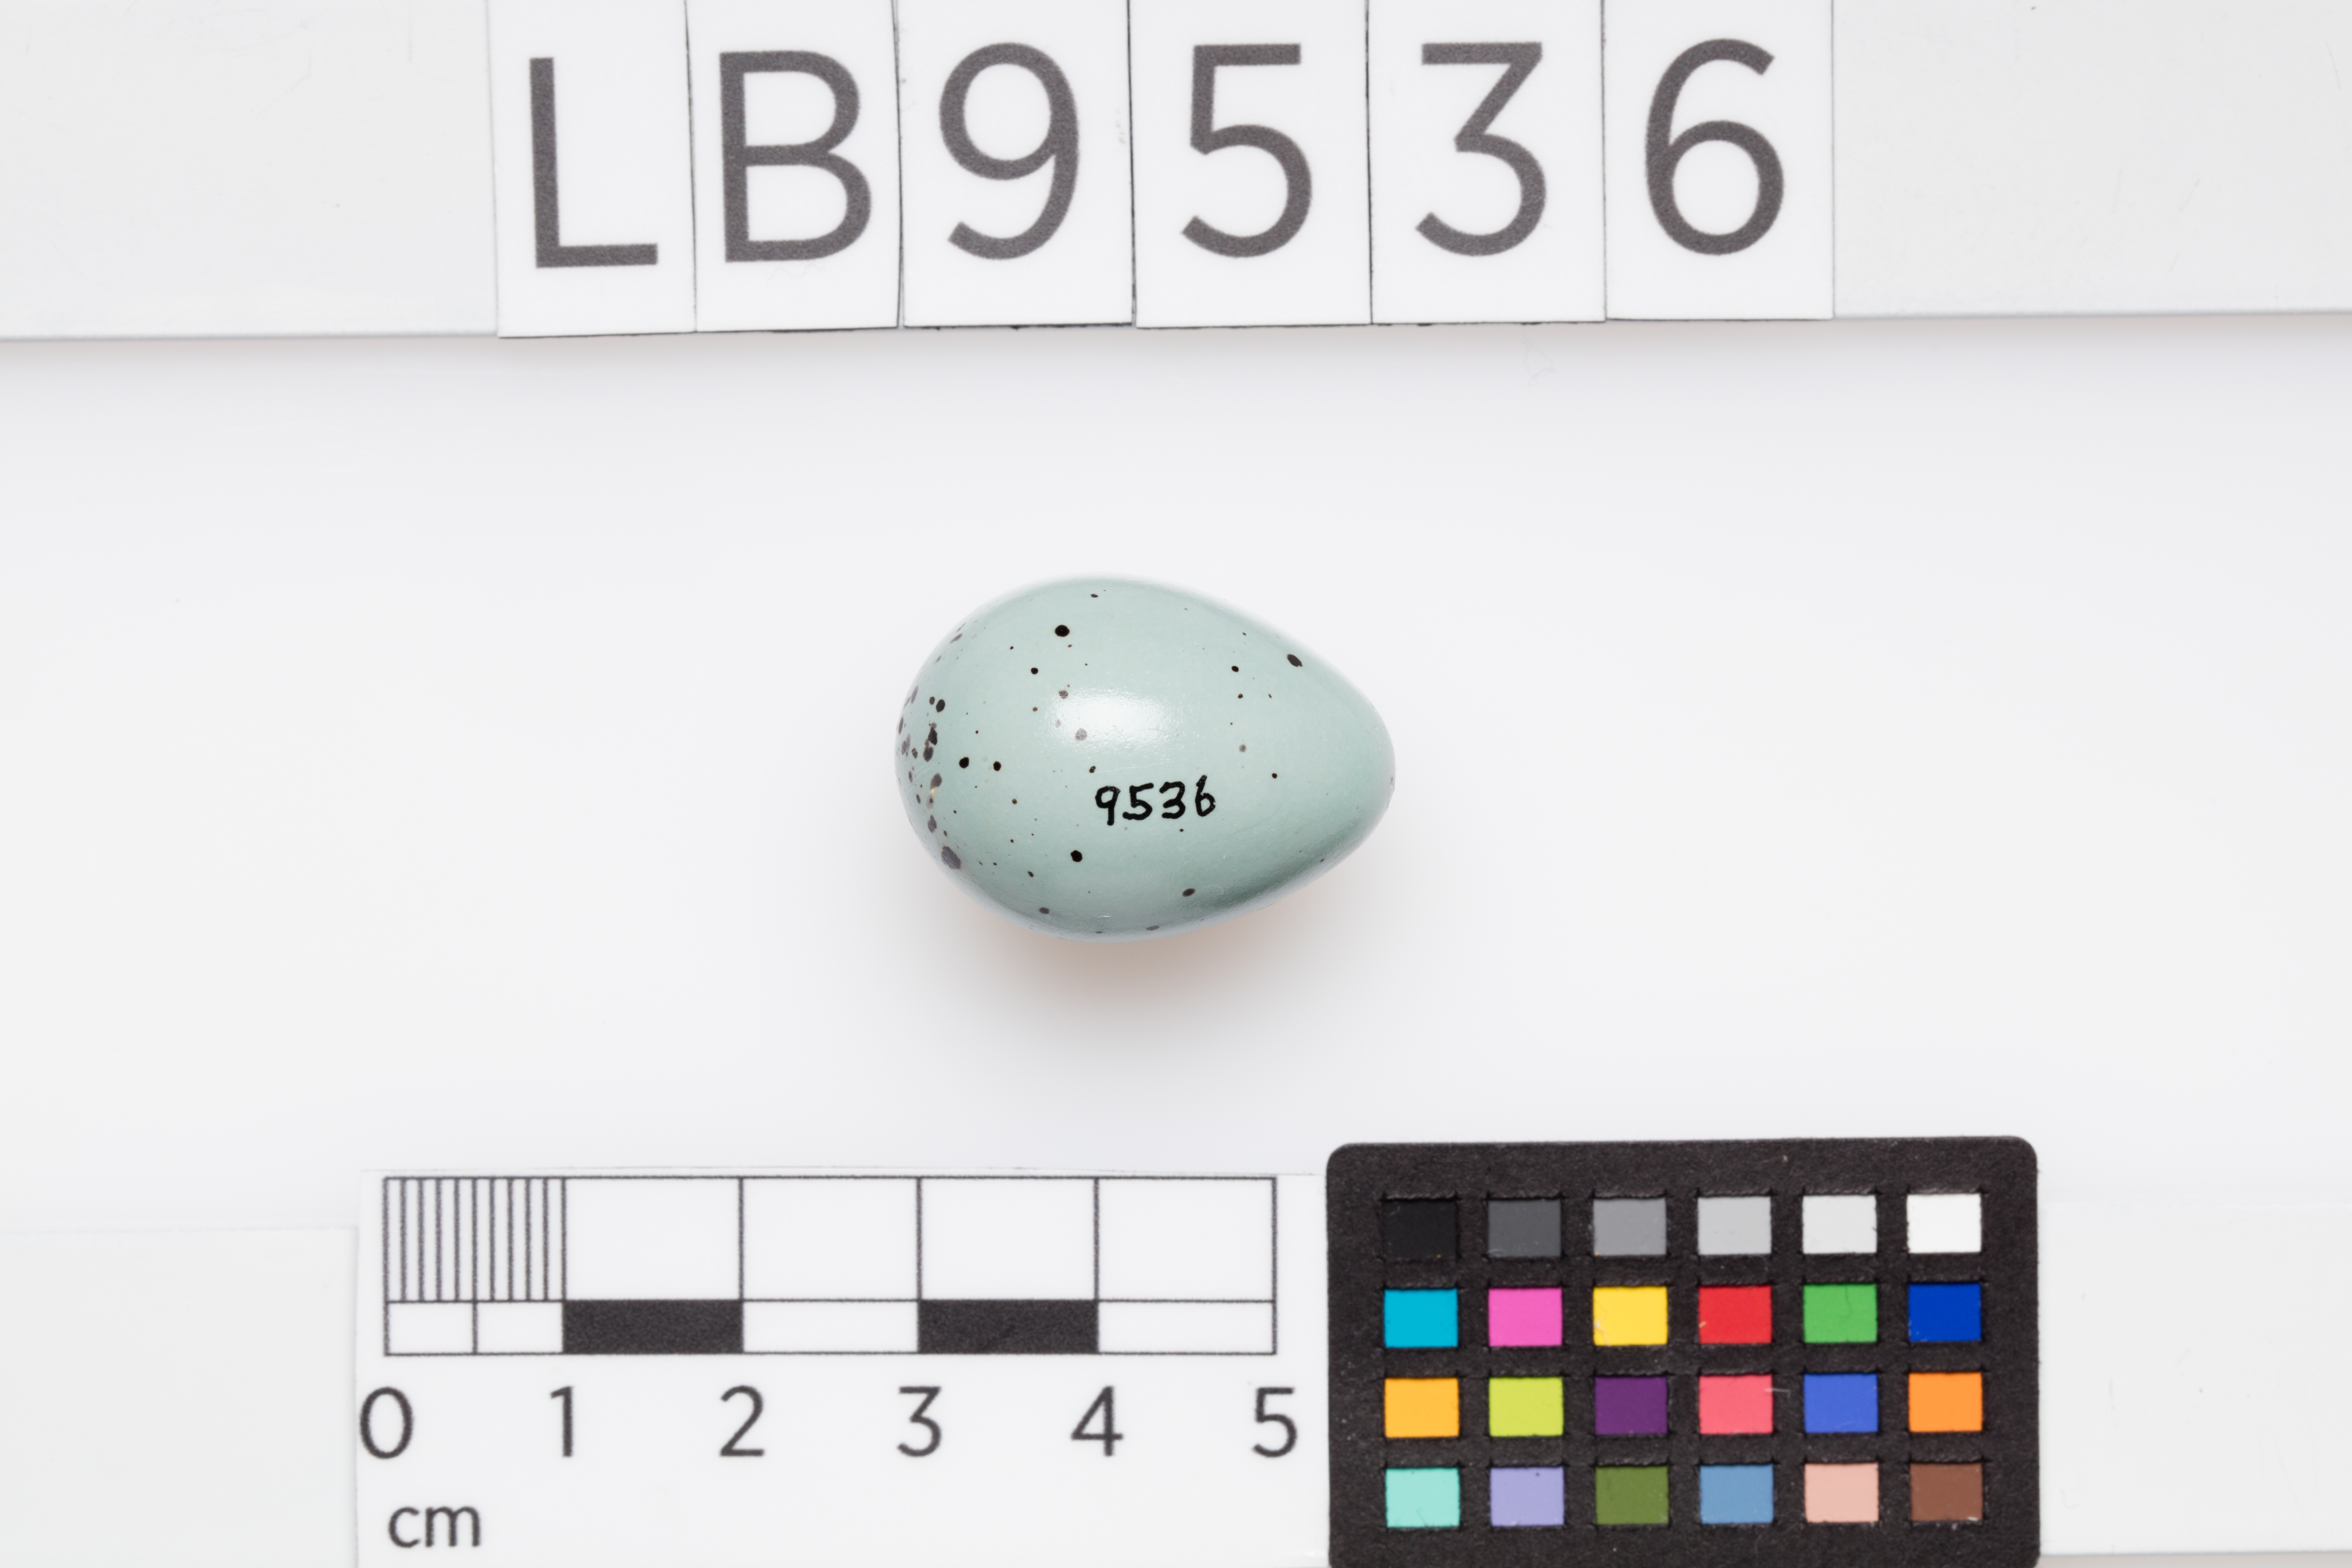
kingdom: Animalia
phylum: Chordata
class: Aves
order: Passeriformes
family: Turdidae
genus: Turdus
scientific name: Turdus philomelos
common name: Song thrush
